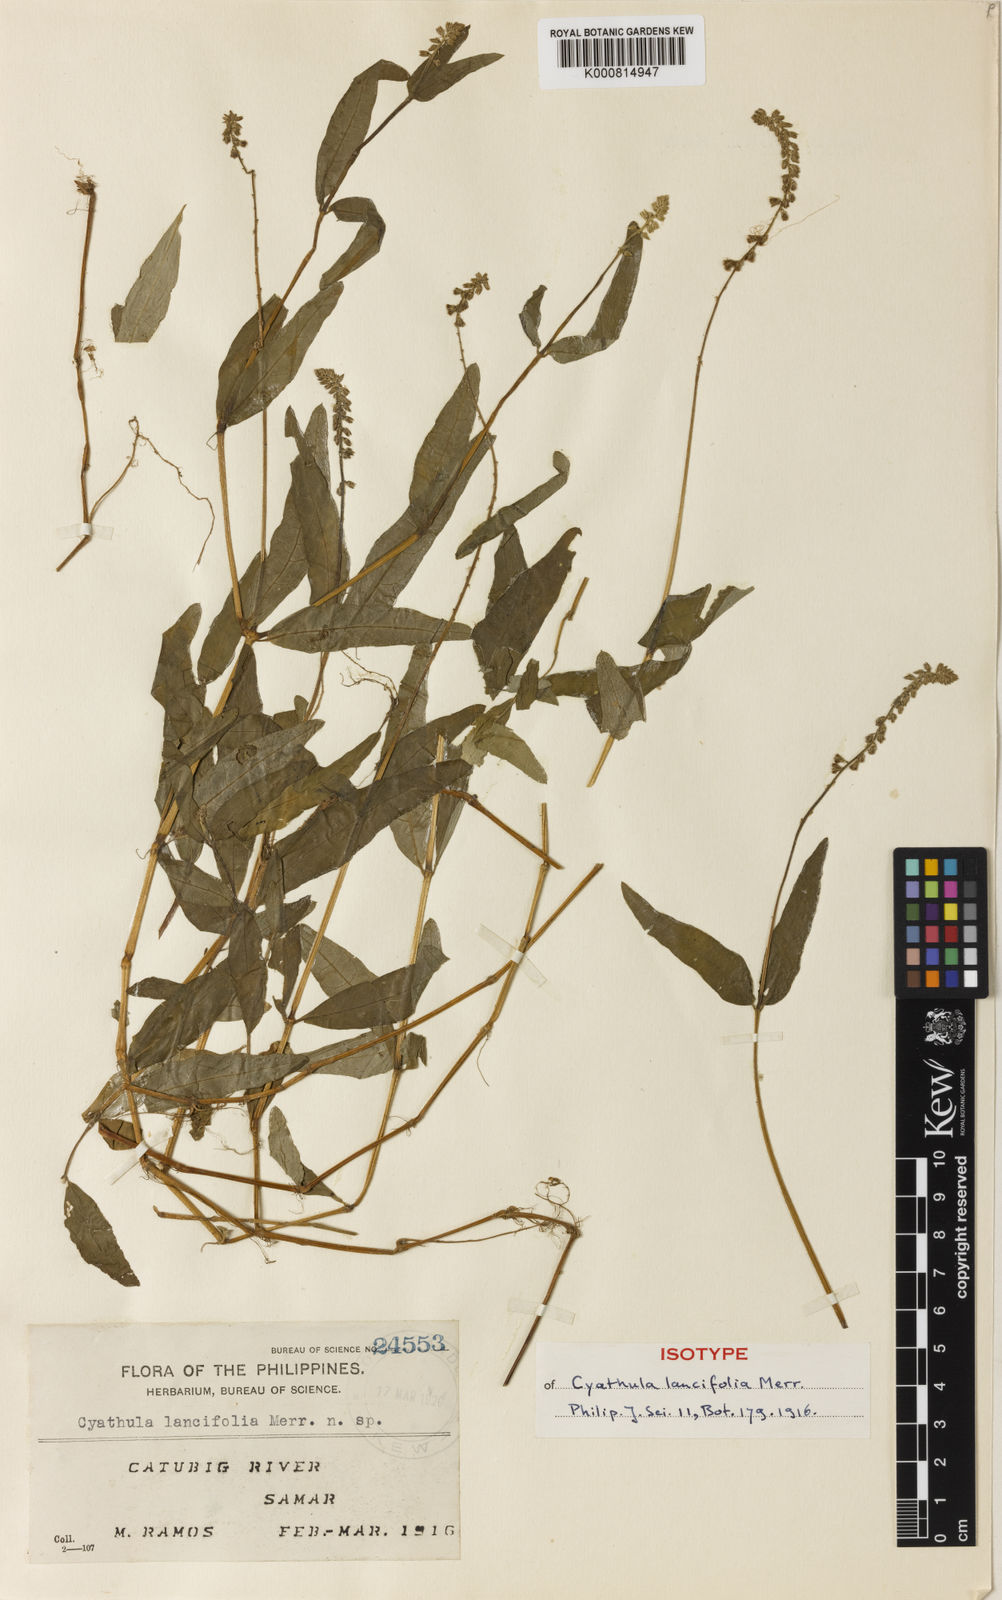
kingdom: Plantae
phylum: Tracheophyta
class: Magnoliopsida
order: Caryophyllales
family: Amaranthaceae
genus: Cyathula
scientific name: Cyathula prostrata
